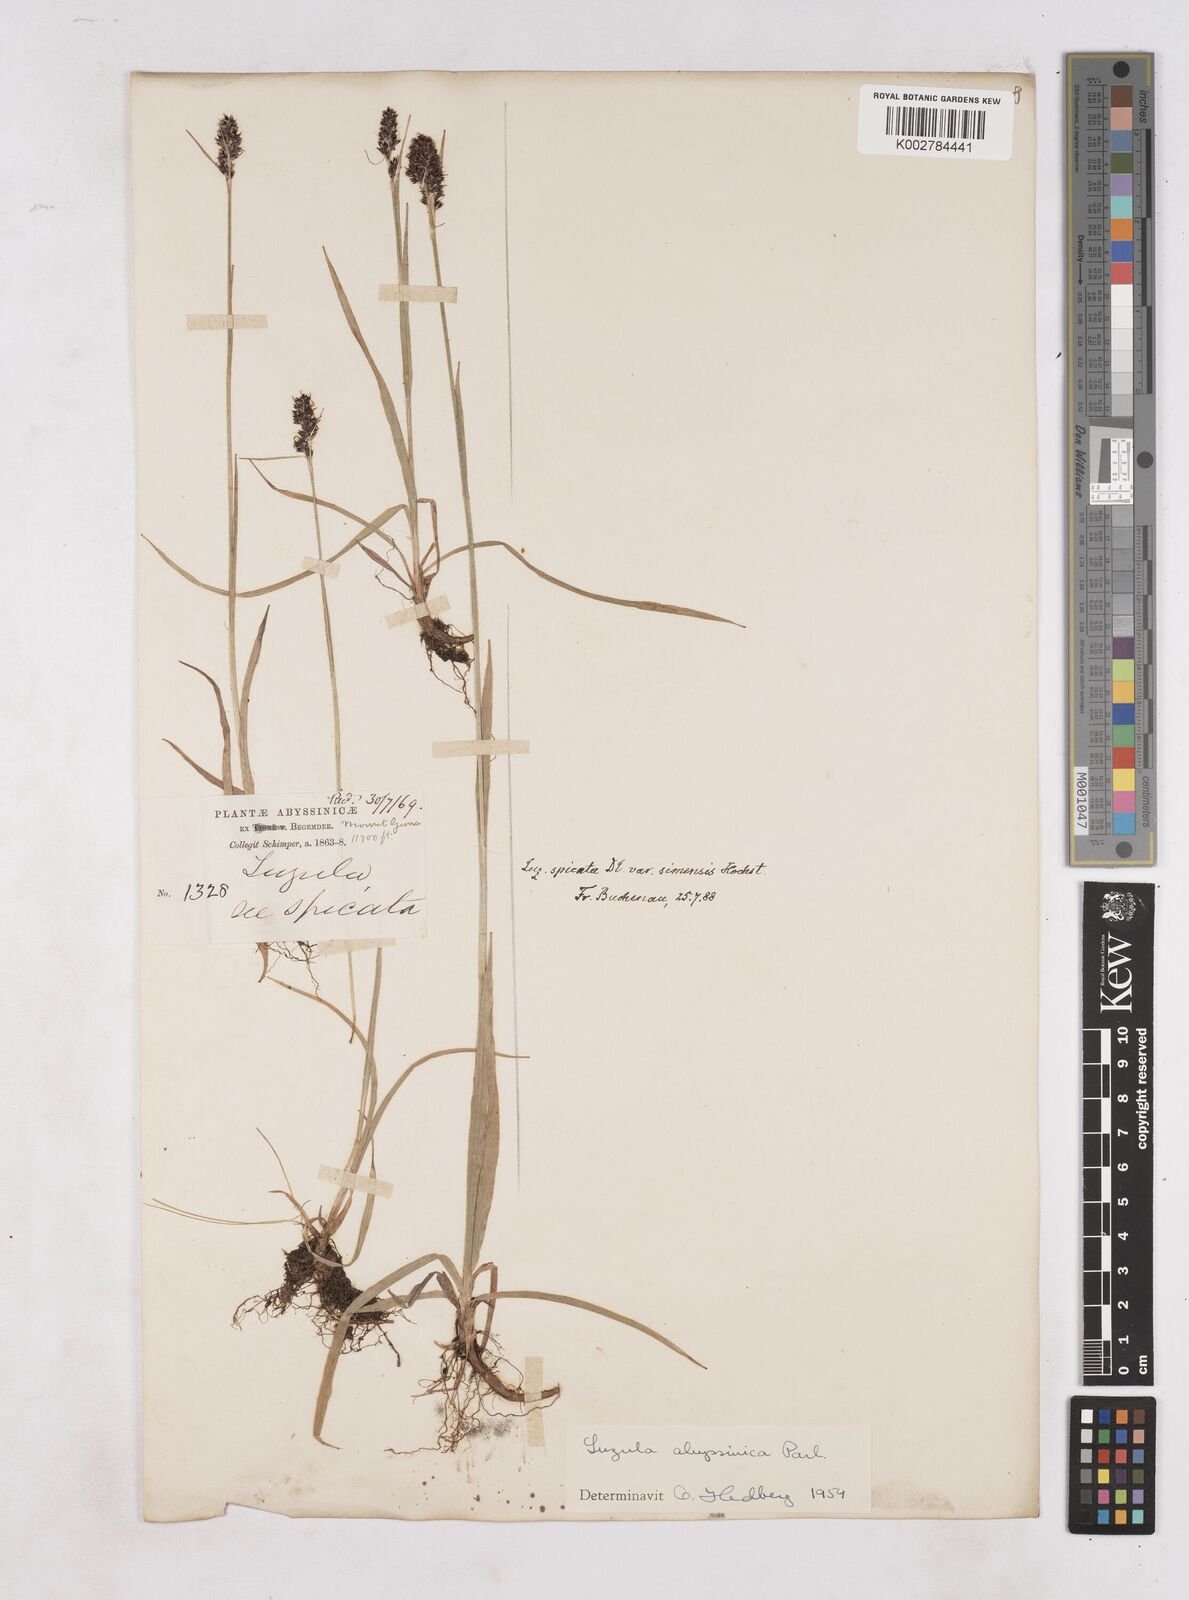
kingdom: Plantae
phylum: Tracheophyta
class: Liliopsida
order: Poales
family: Juncaceae
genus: Luzula
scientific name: Luzula abyssinica
